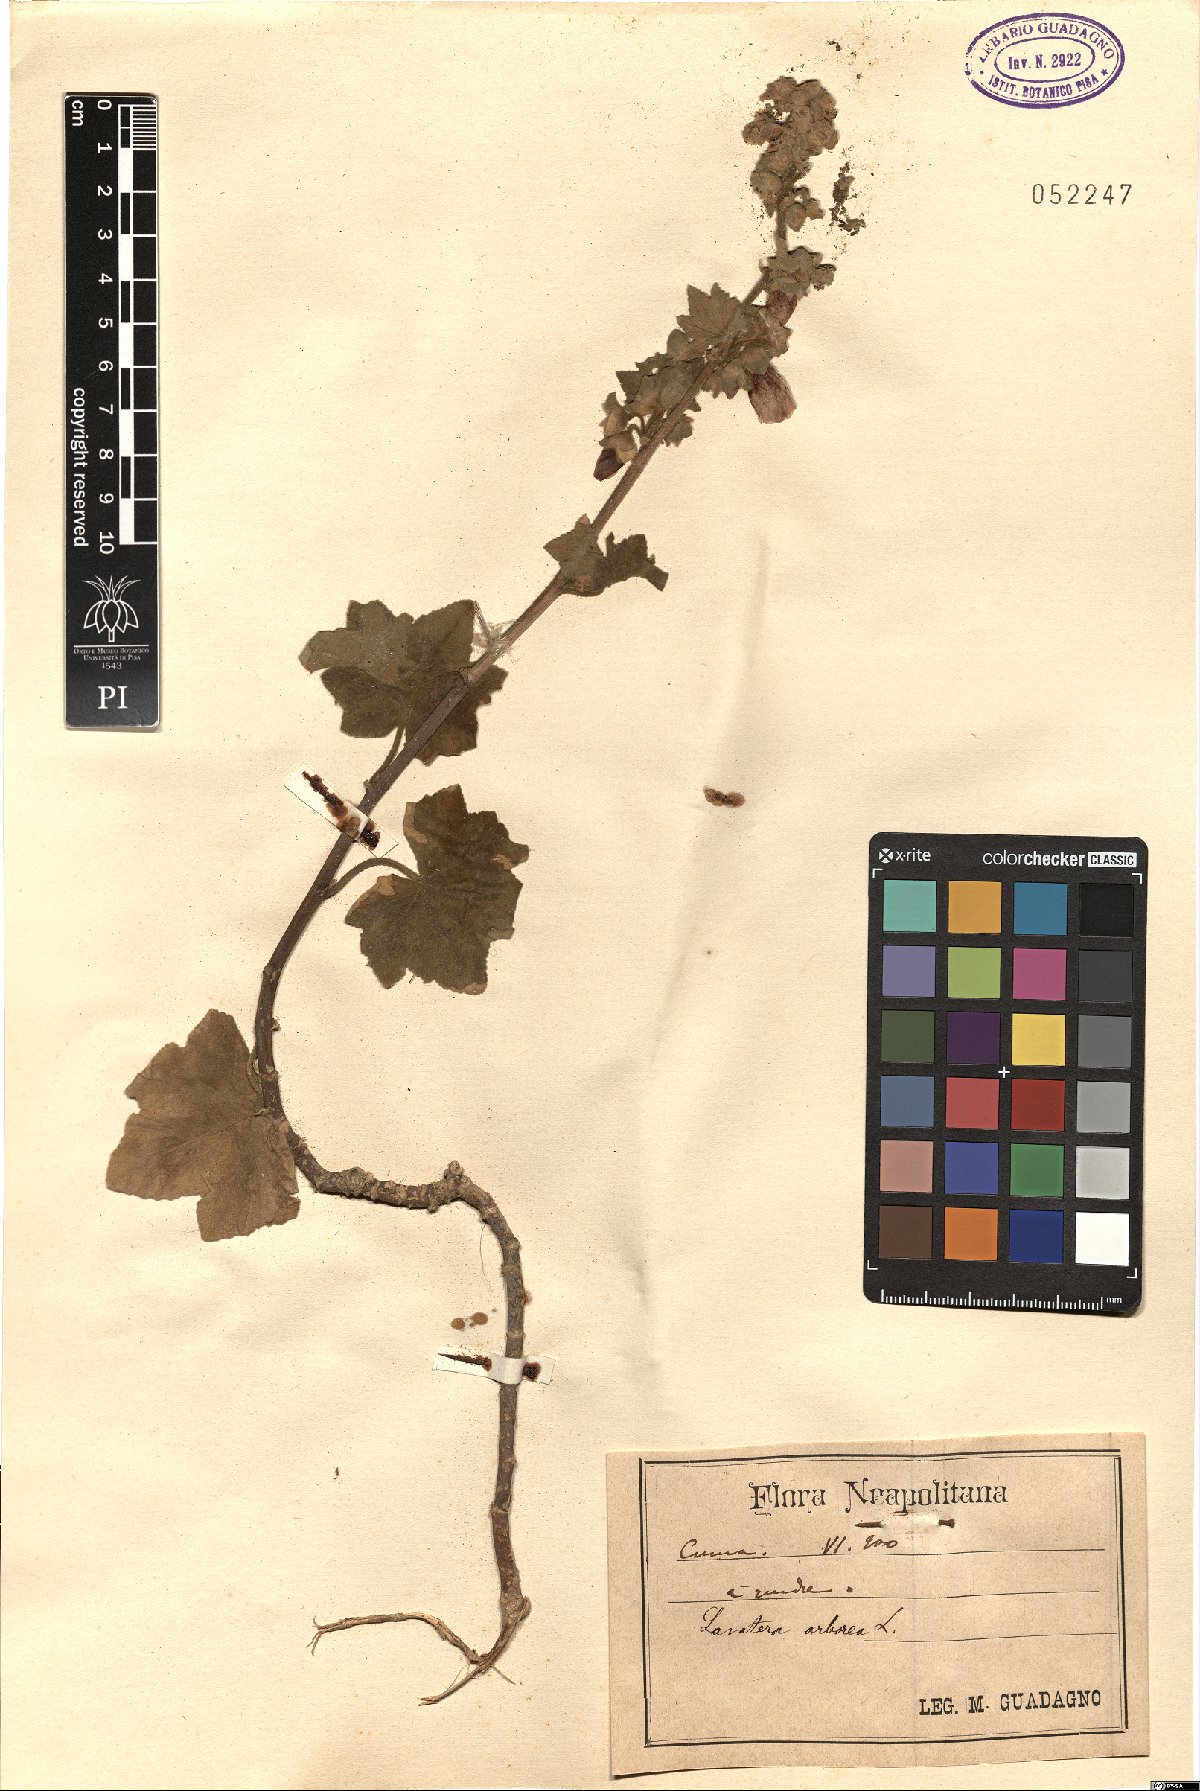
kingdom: Plantae
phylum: Tracheophyta
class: Magnoliopsida
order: Malvales
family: Malvaceae
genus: Malva
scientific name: Malva arborea
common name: Tree mallow
